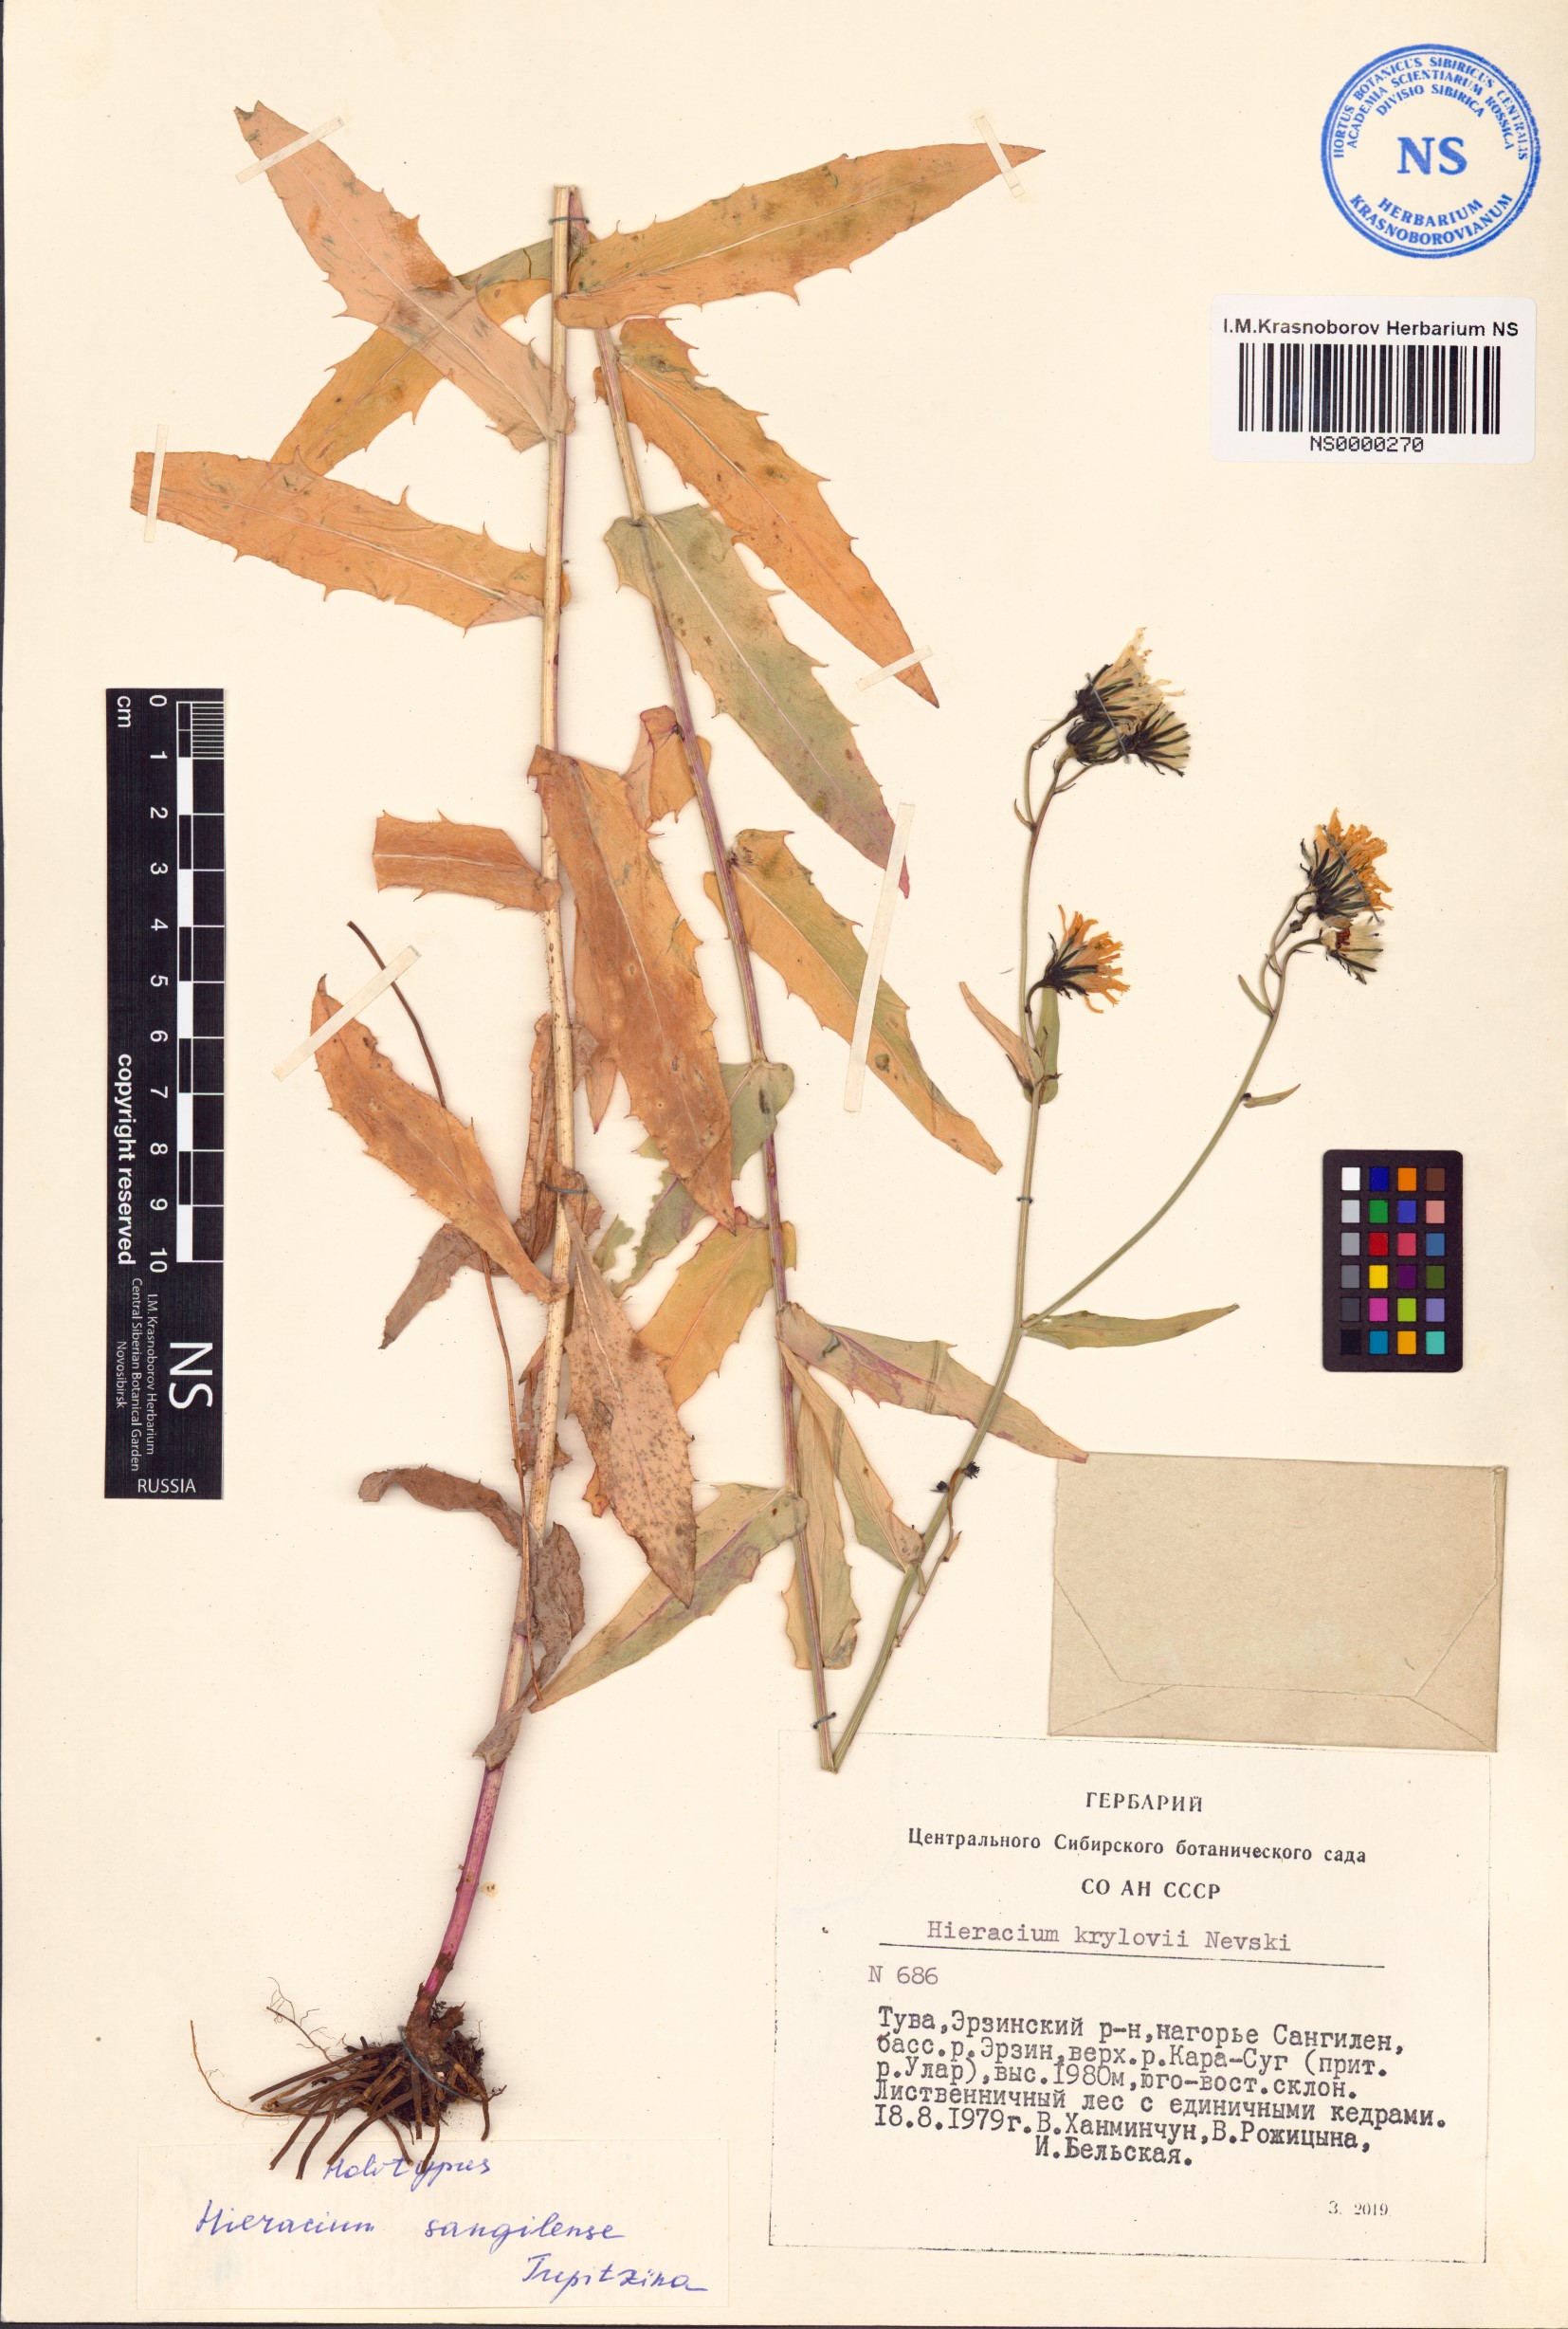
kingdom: Plantae
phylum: Tracheophyta
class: Magnoliopsida
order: Asterales
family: Asteraceae
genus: Hieracium
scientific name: Hieracium sangilense
